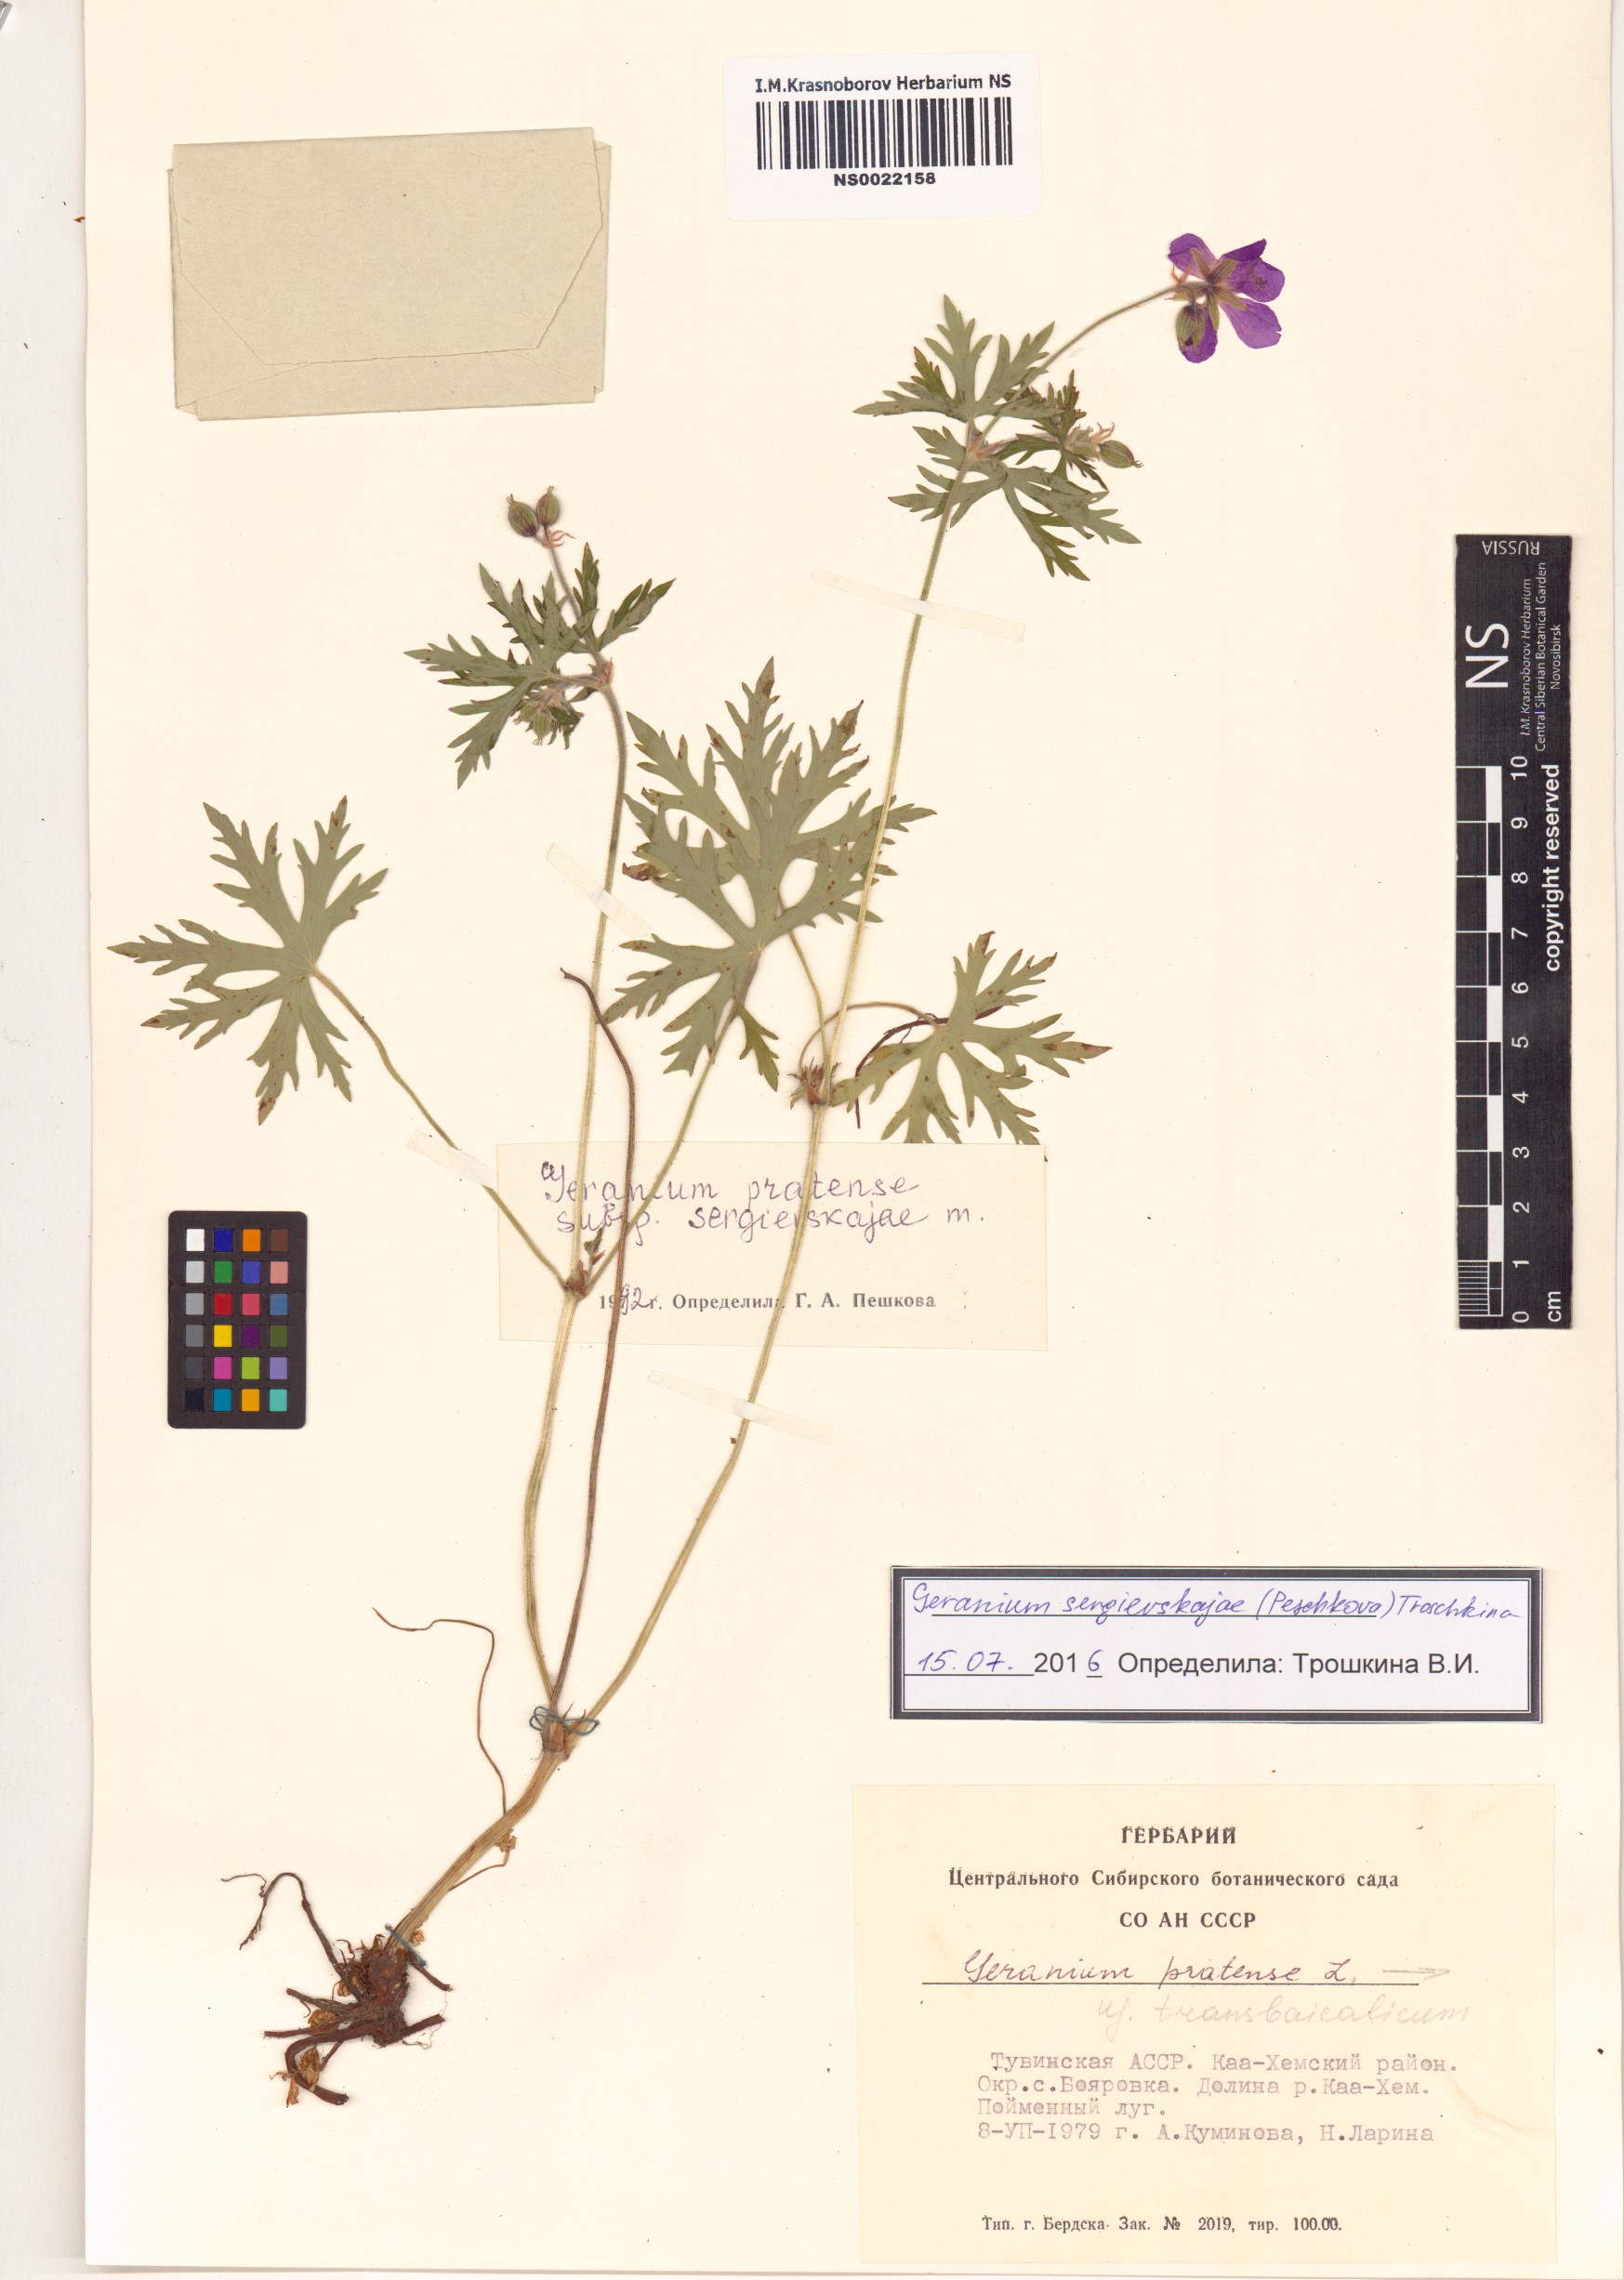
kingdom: Plantae
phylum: Tracheophyta
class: Magnoliopsida
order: Geraniales
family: Geraniaceae
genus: Geranium
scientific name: Geranium pratense
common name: Meadow crane's-bill
